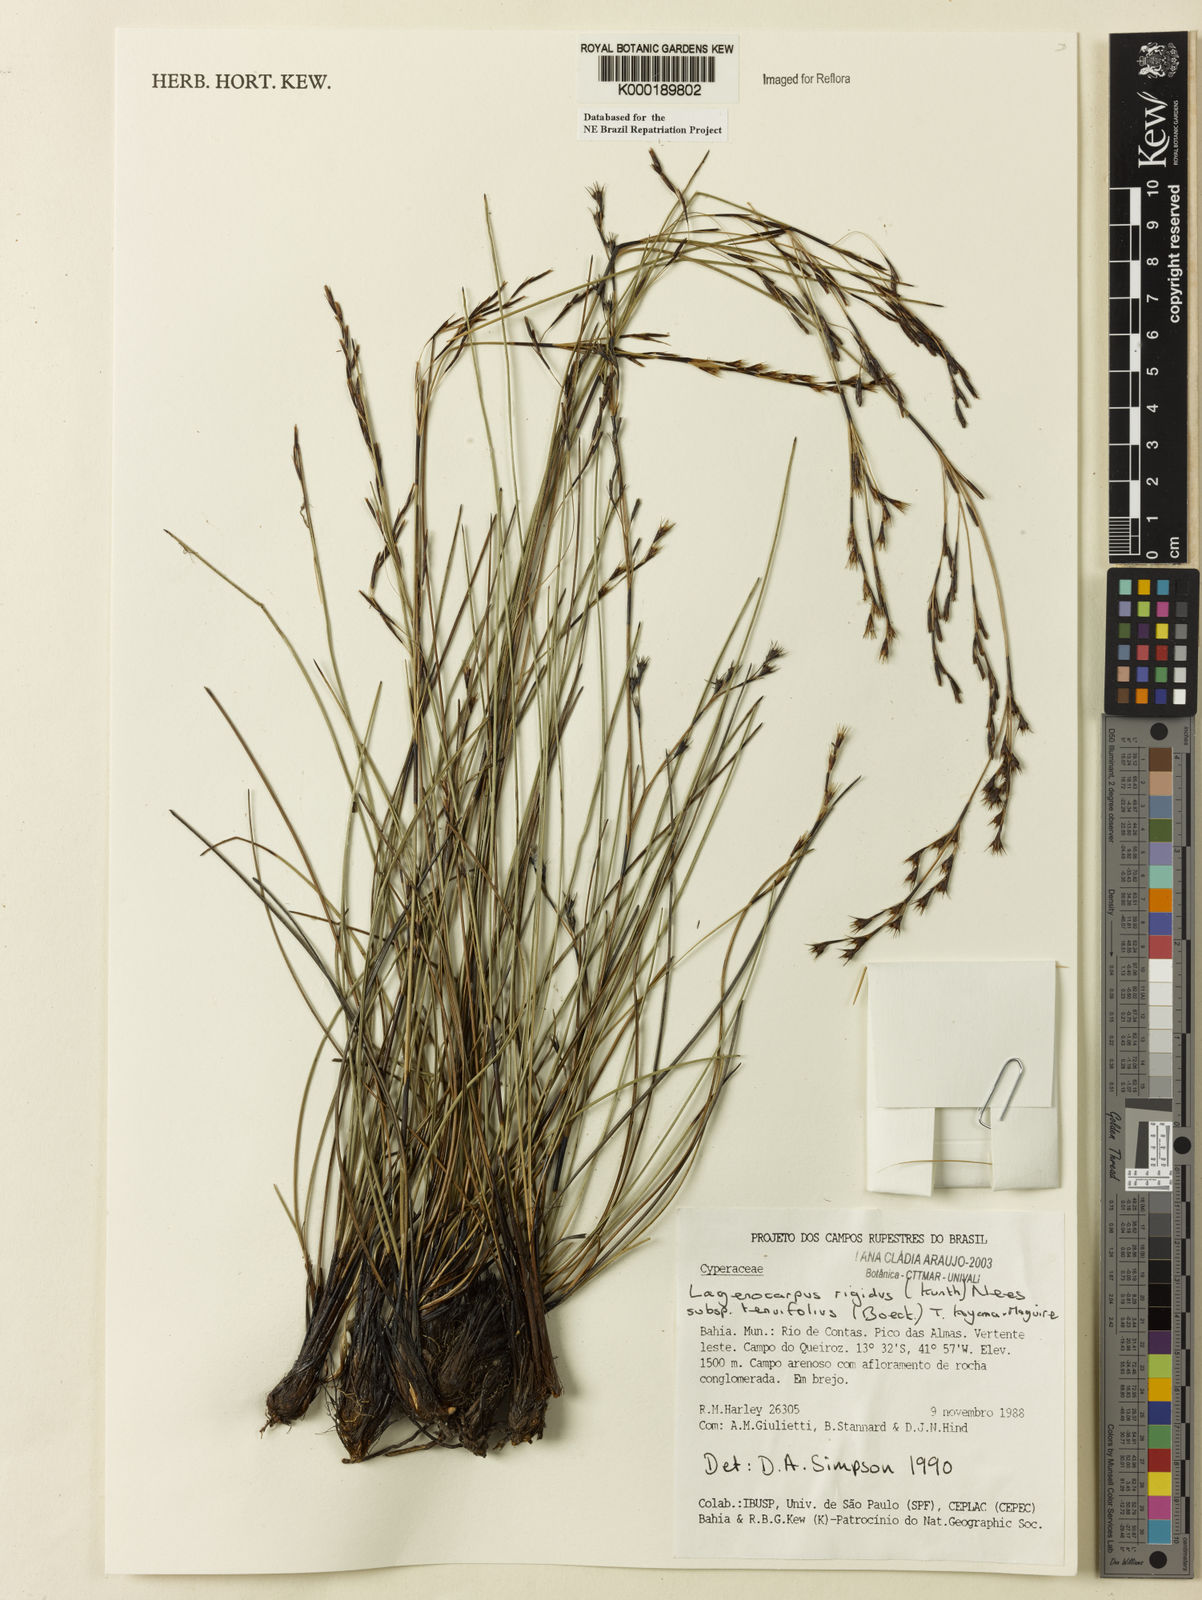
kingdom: Plantae
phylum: Tracheophyta
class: Liliopsida
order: Poales
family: Cyperaceae
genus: Lagenocarpus
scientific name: Lagenocarpus rigidus
